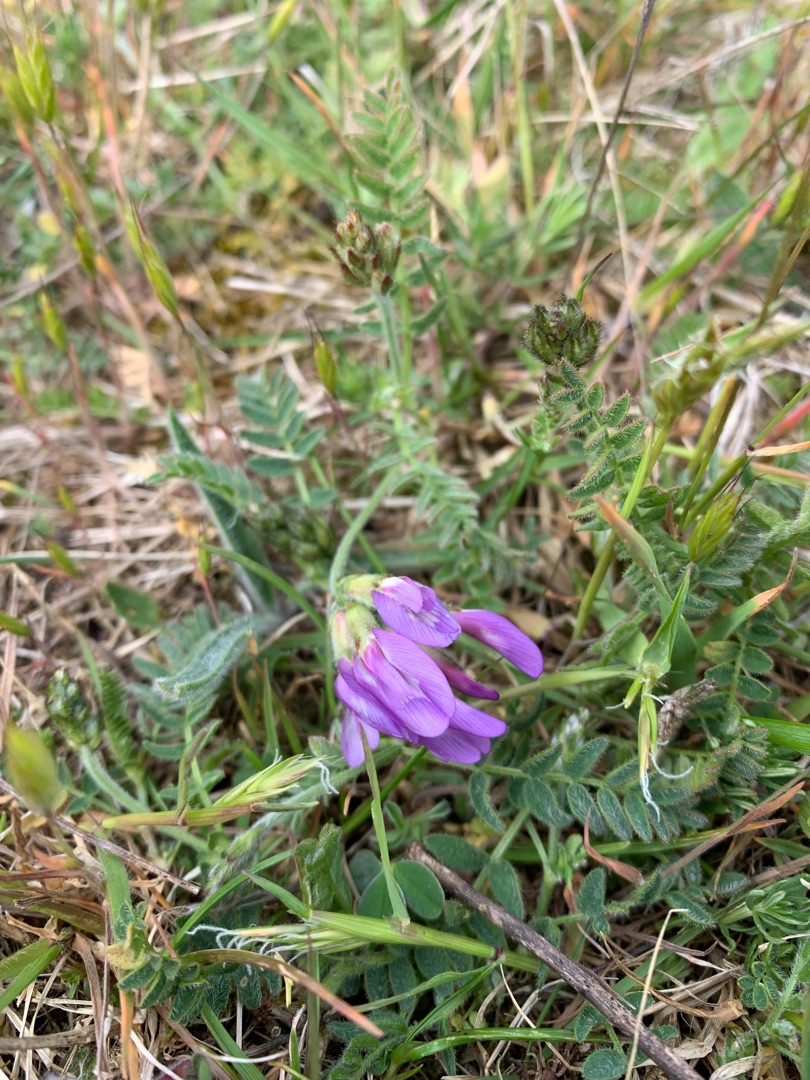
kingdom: Plantae
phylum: Tracheophyta
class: Magnoliopsida
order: Fabales
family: Fabaceae
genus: Astragalus
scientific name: Astragalus danicus
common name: Dansk astragel
